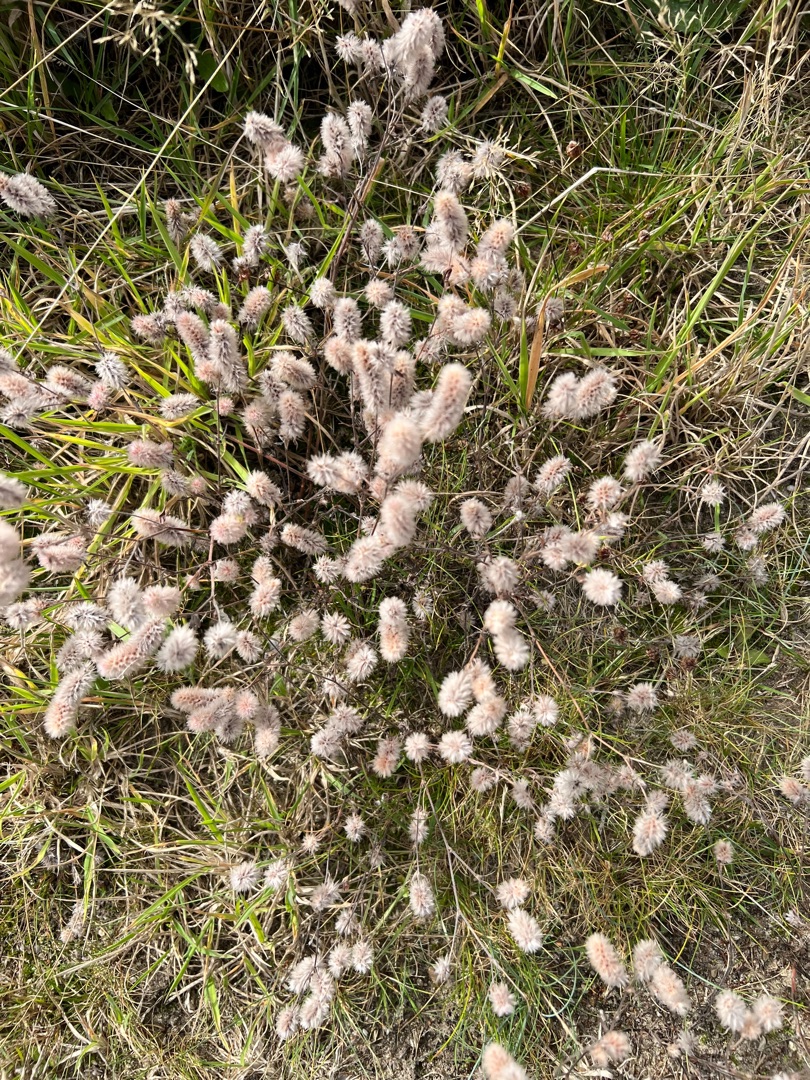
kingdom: Plantae
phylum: Tracheophyta
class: Magnoliopsida
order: Fabales
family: Fabaceae
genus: Trifolium
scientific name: Trifolium arvense
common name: Hare-kløver
